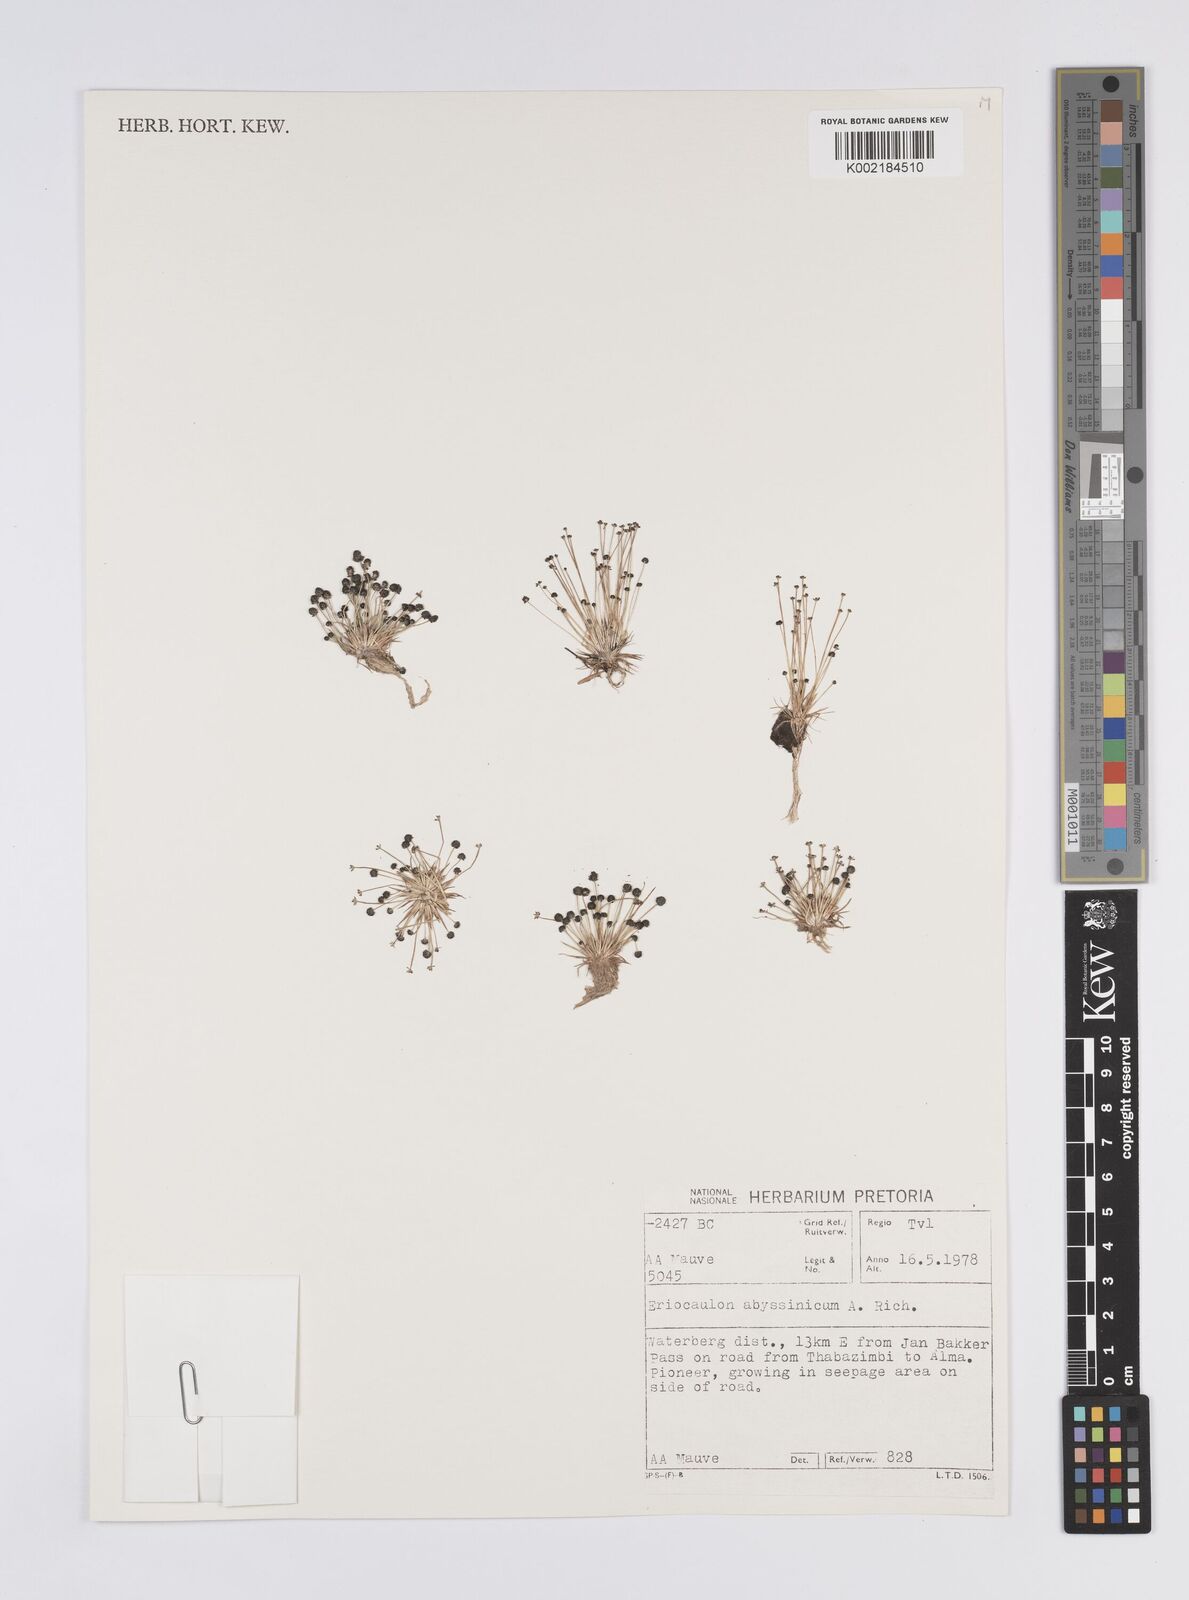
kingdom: Plantae
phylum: Tracheophyta
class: Liliopsida
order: Poales
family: Eriocaulaceae
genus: Eriocaulon
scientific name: Eriocaulon abyssinicum
